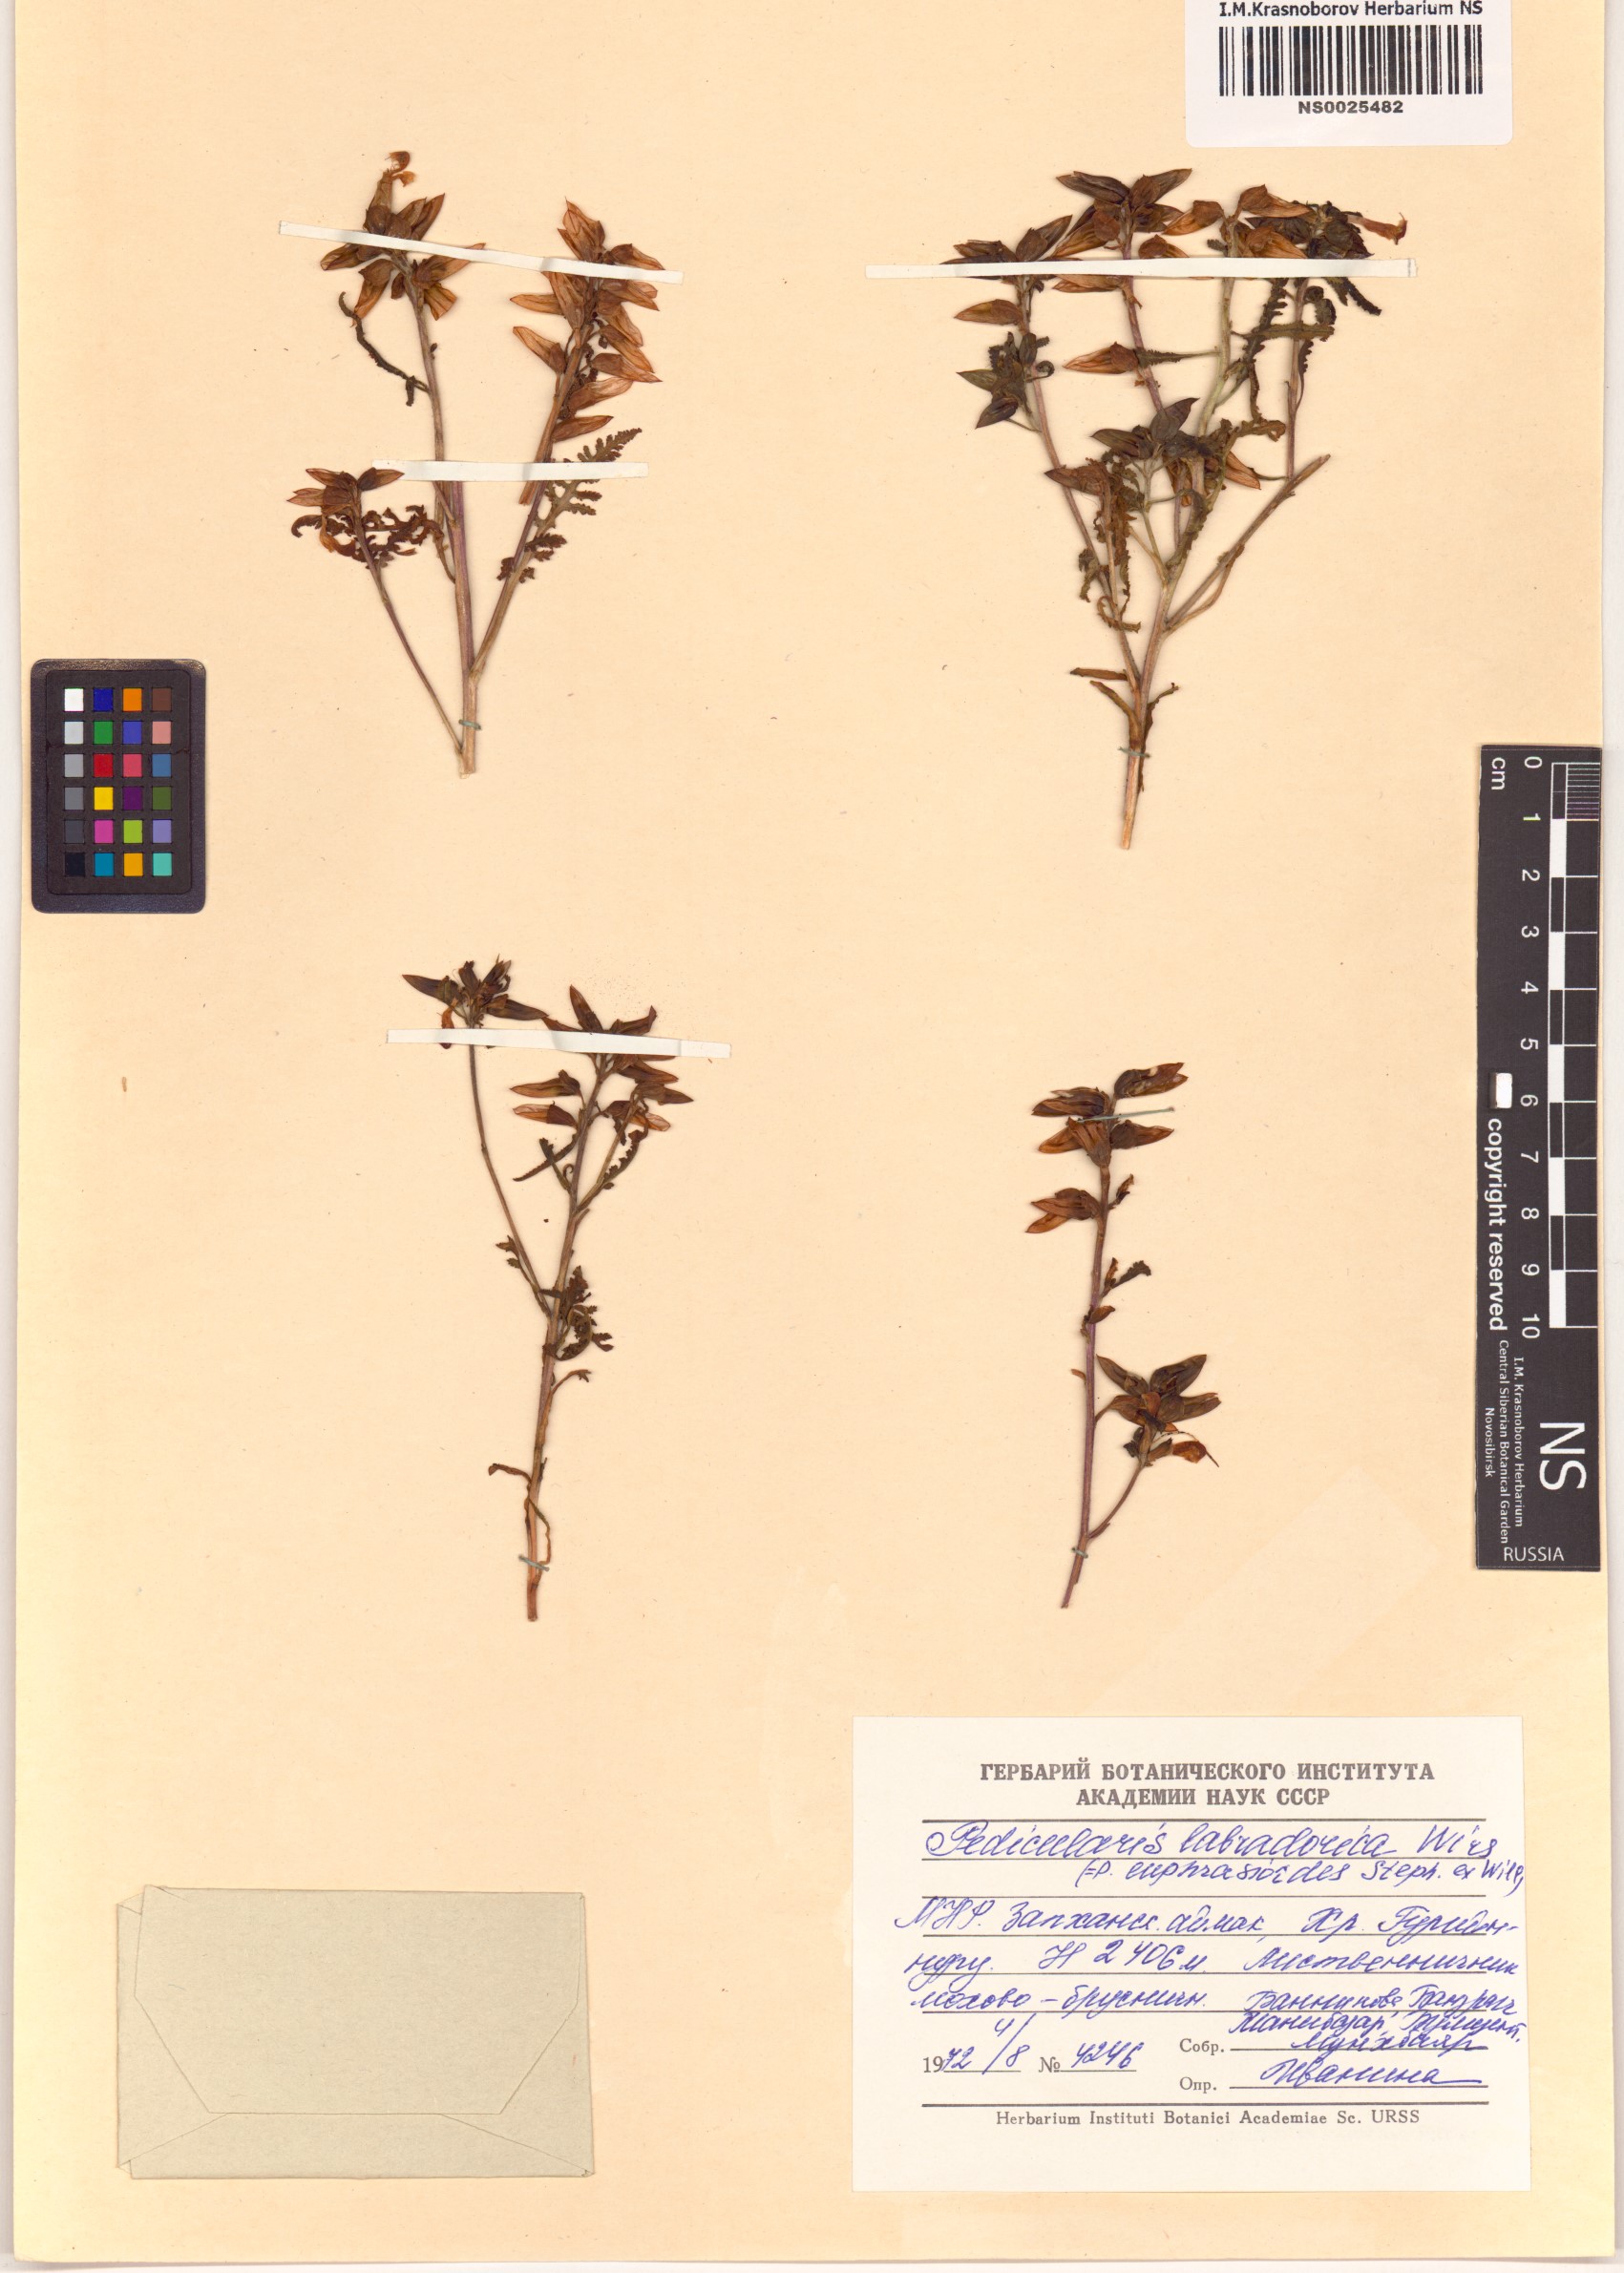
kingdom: Plantae
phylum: Tracheophyta
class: Magnoliopsida
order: Lamiales
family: Orobanchaceae
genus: Pedicularis
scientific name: Pedicularis labradorica
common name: Labrador lousewort
